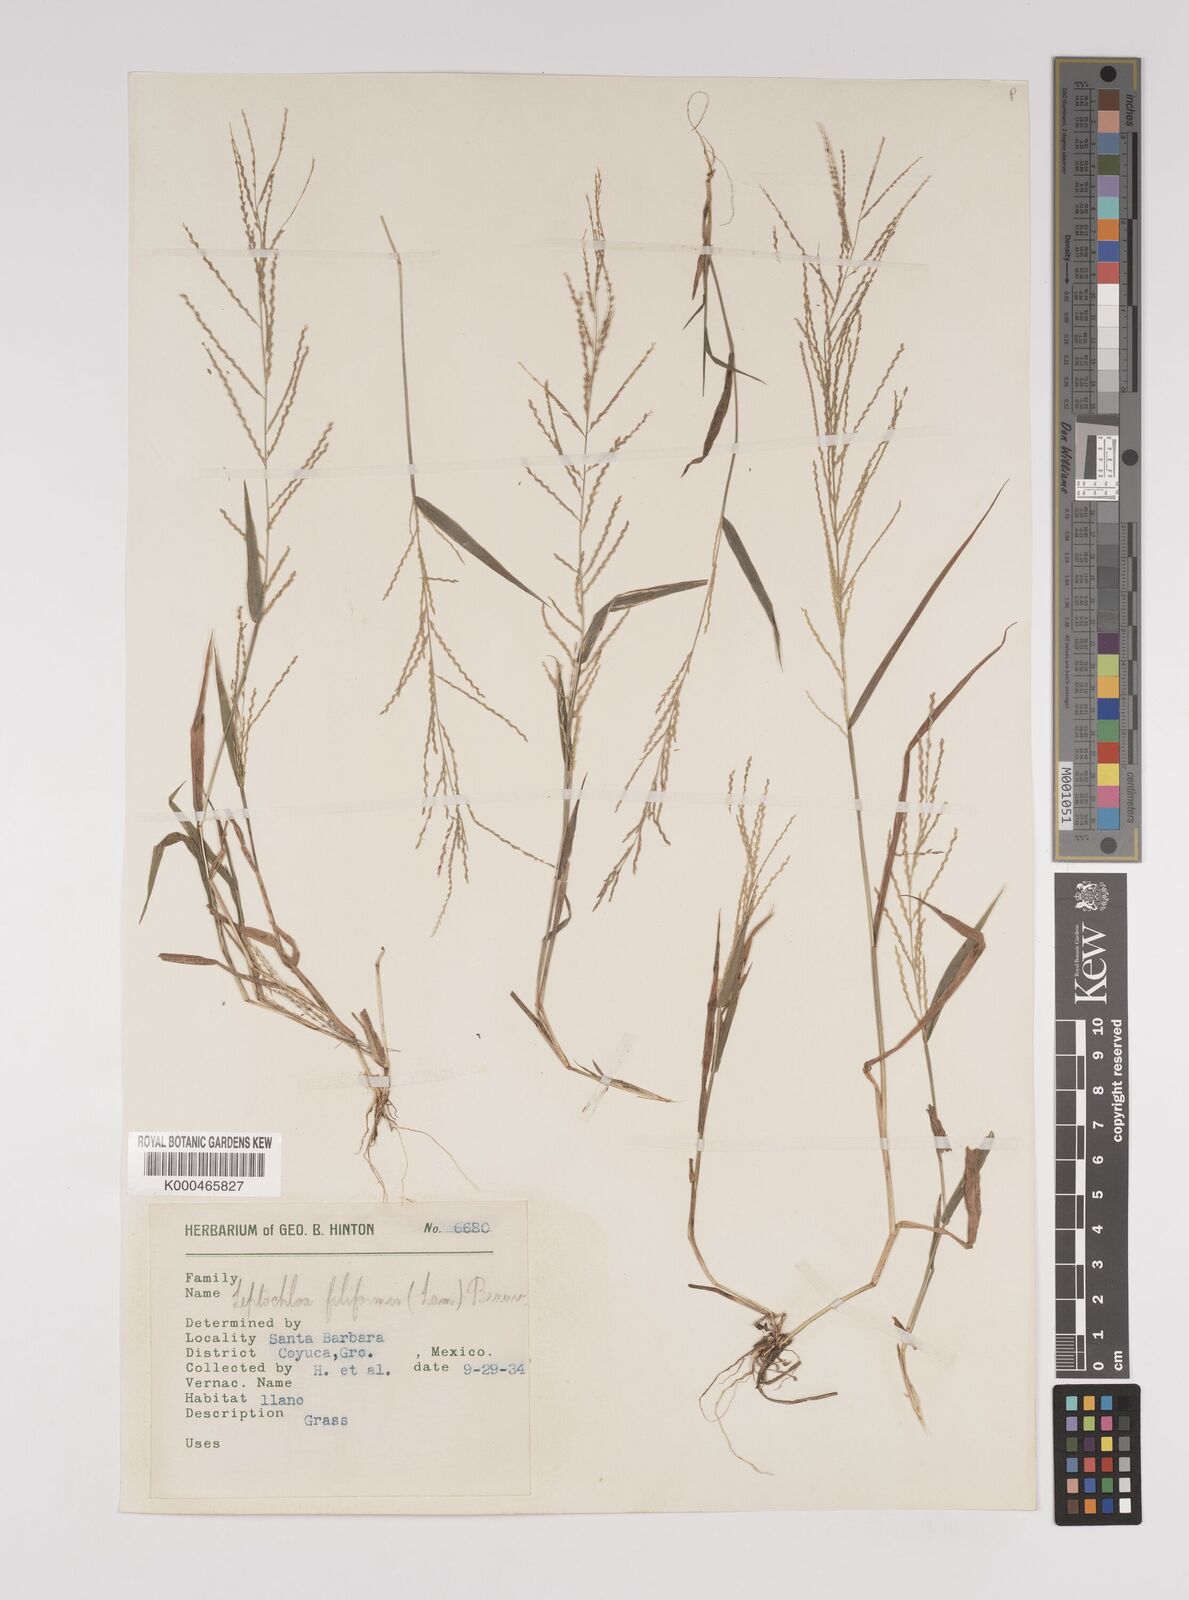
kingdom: Plantae
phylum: Tracheophyta
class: Liliopsida
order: Poales
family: Poaceae
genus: Leptochloa
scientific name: Leptochloa panicea
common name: Mucronate sprangletop
